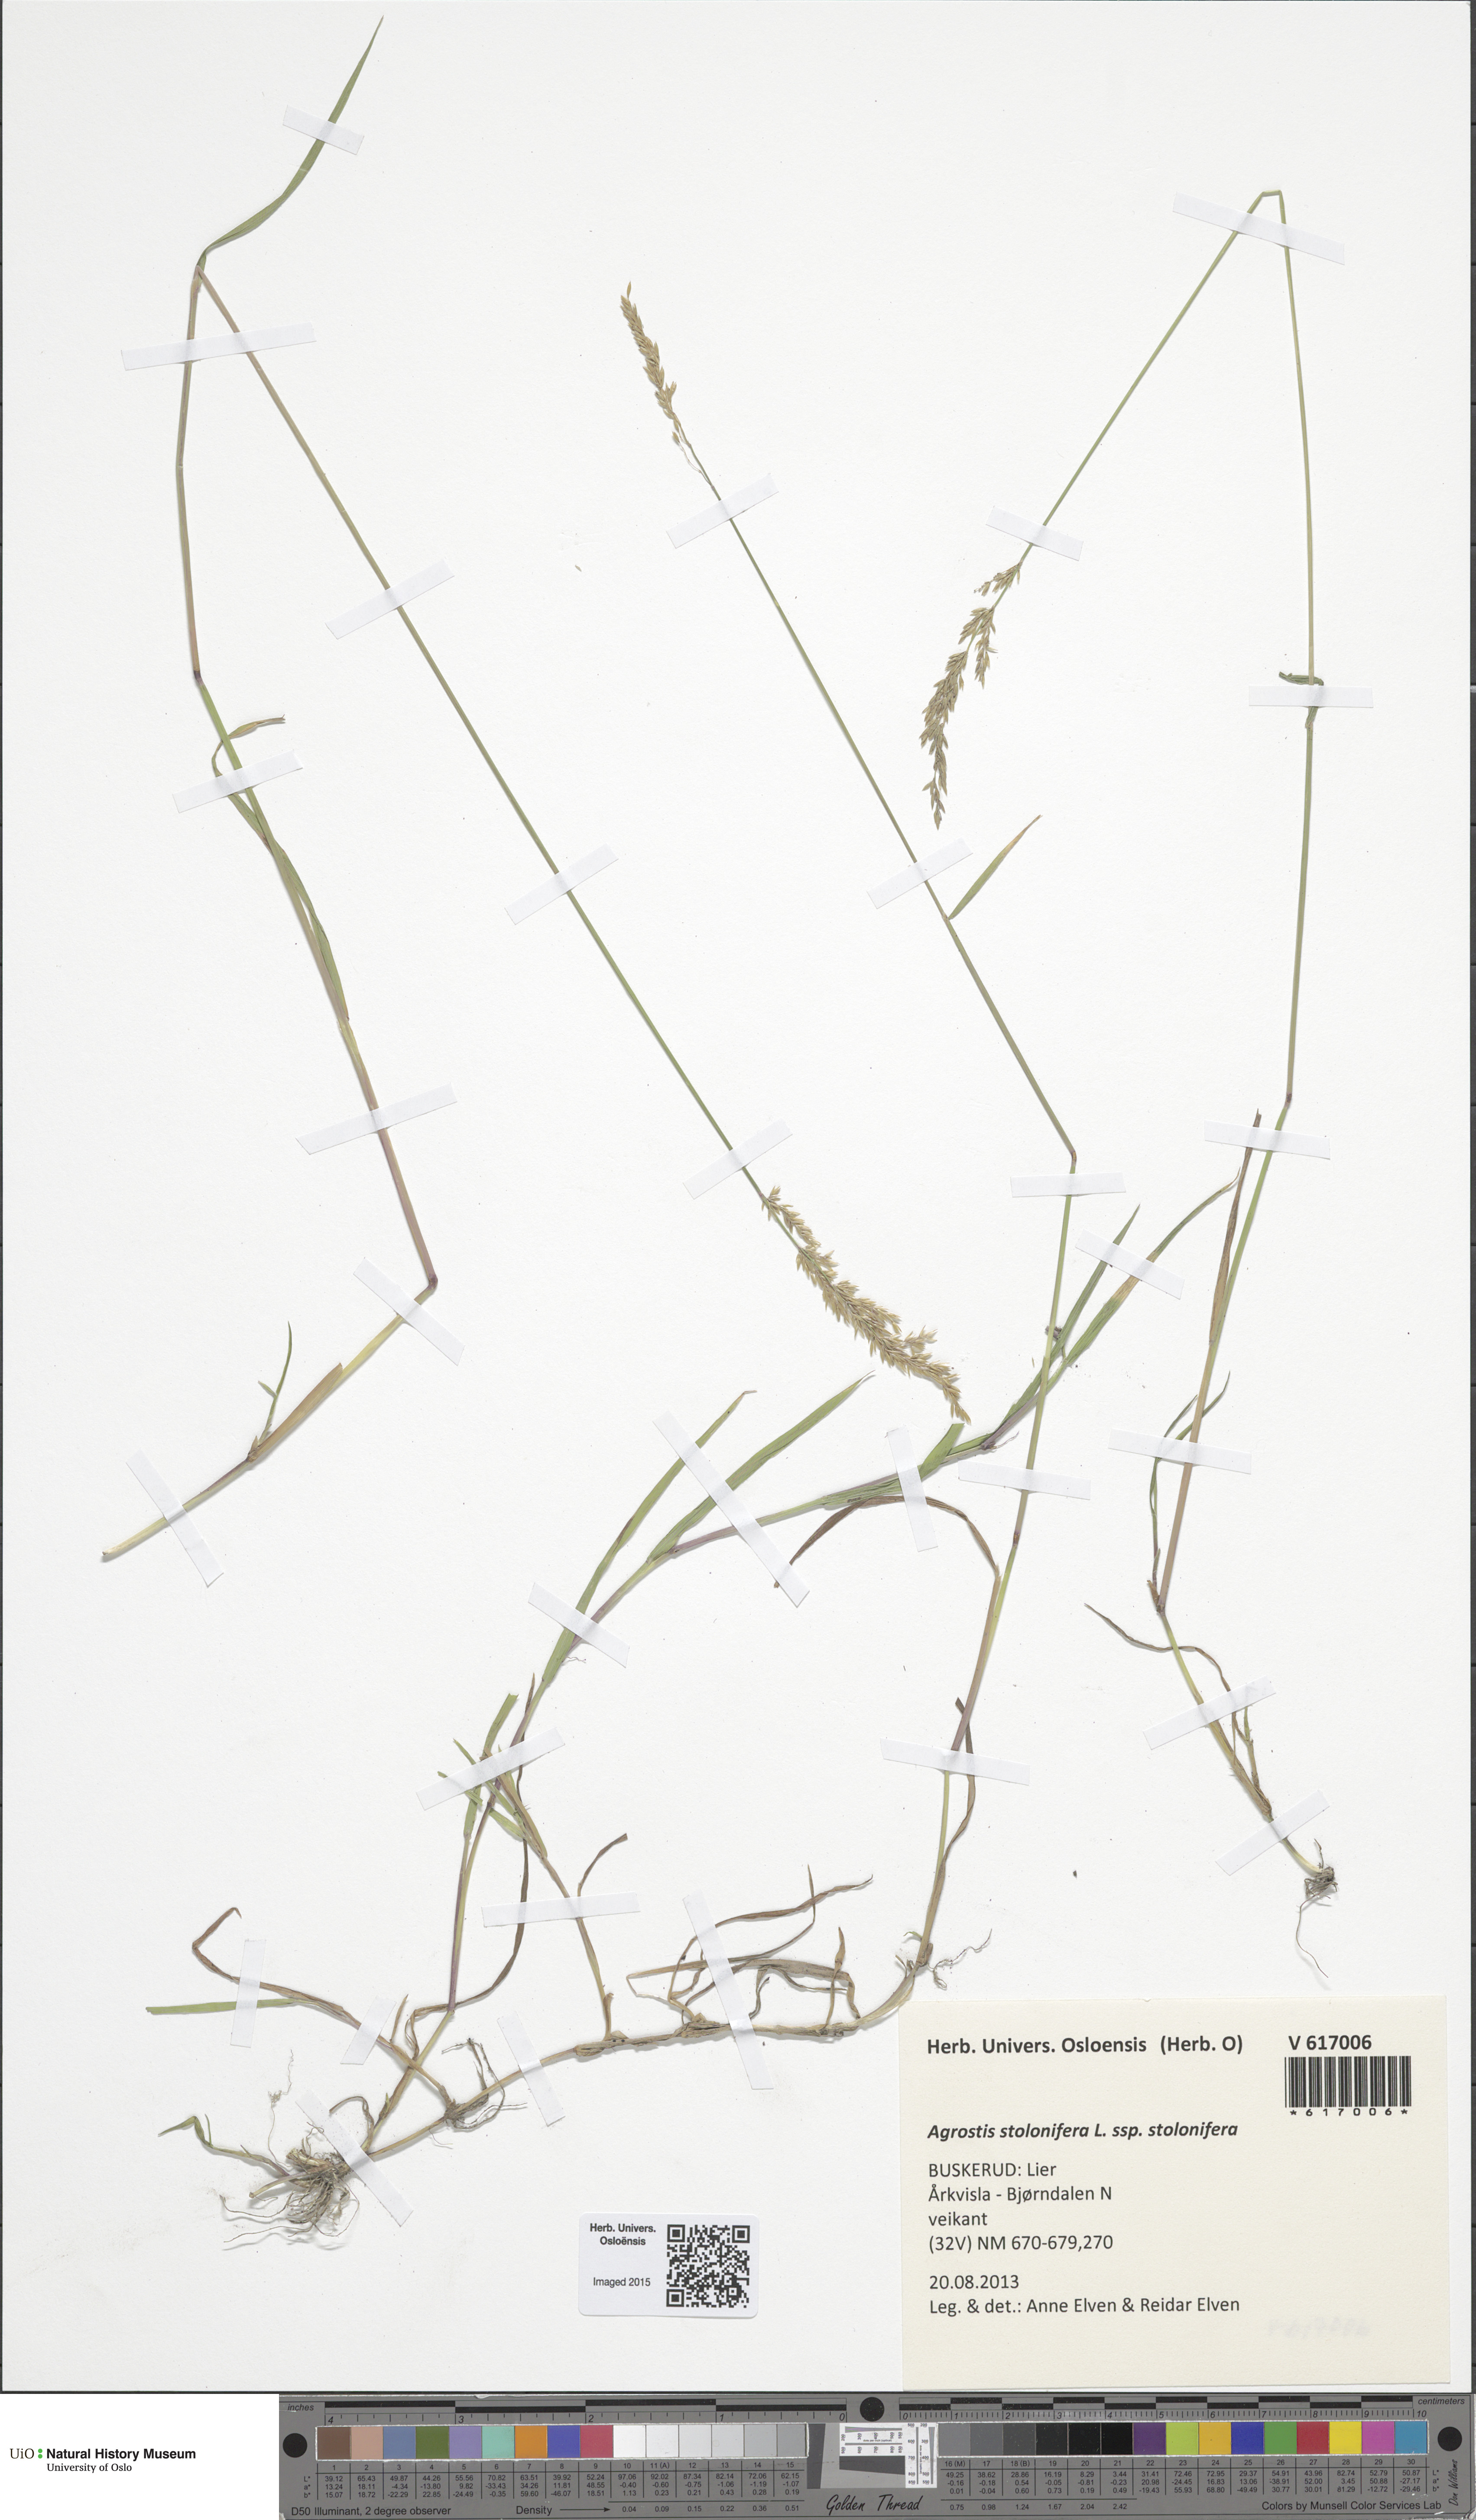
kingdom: Plantae
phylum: Tracheophyta
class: Liliopsida
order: Poales
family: Poaceae
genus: Agrostis
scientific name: Agrostis stolonifera
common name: Creeping bentgrass
